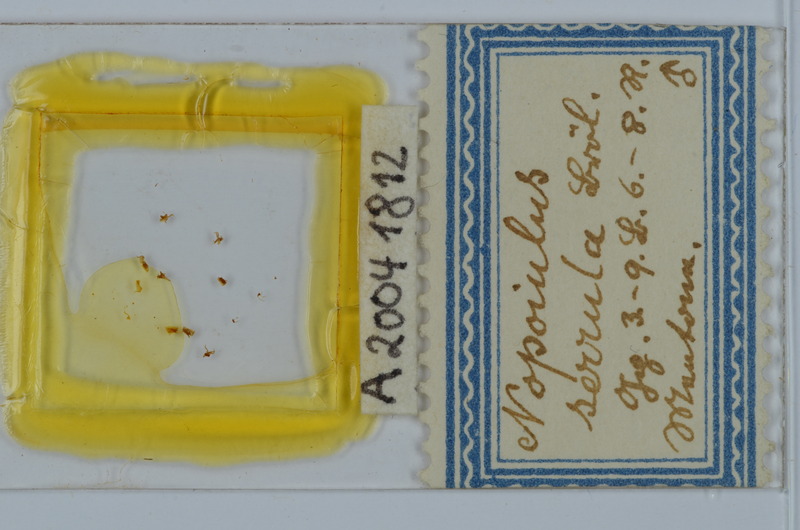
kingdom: Animalia
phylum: Arthropoda
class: Diplopoda
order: Julida
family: Blaniulidae
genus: Nopoiulus
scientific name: Nopoiulus
